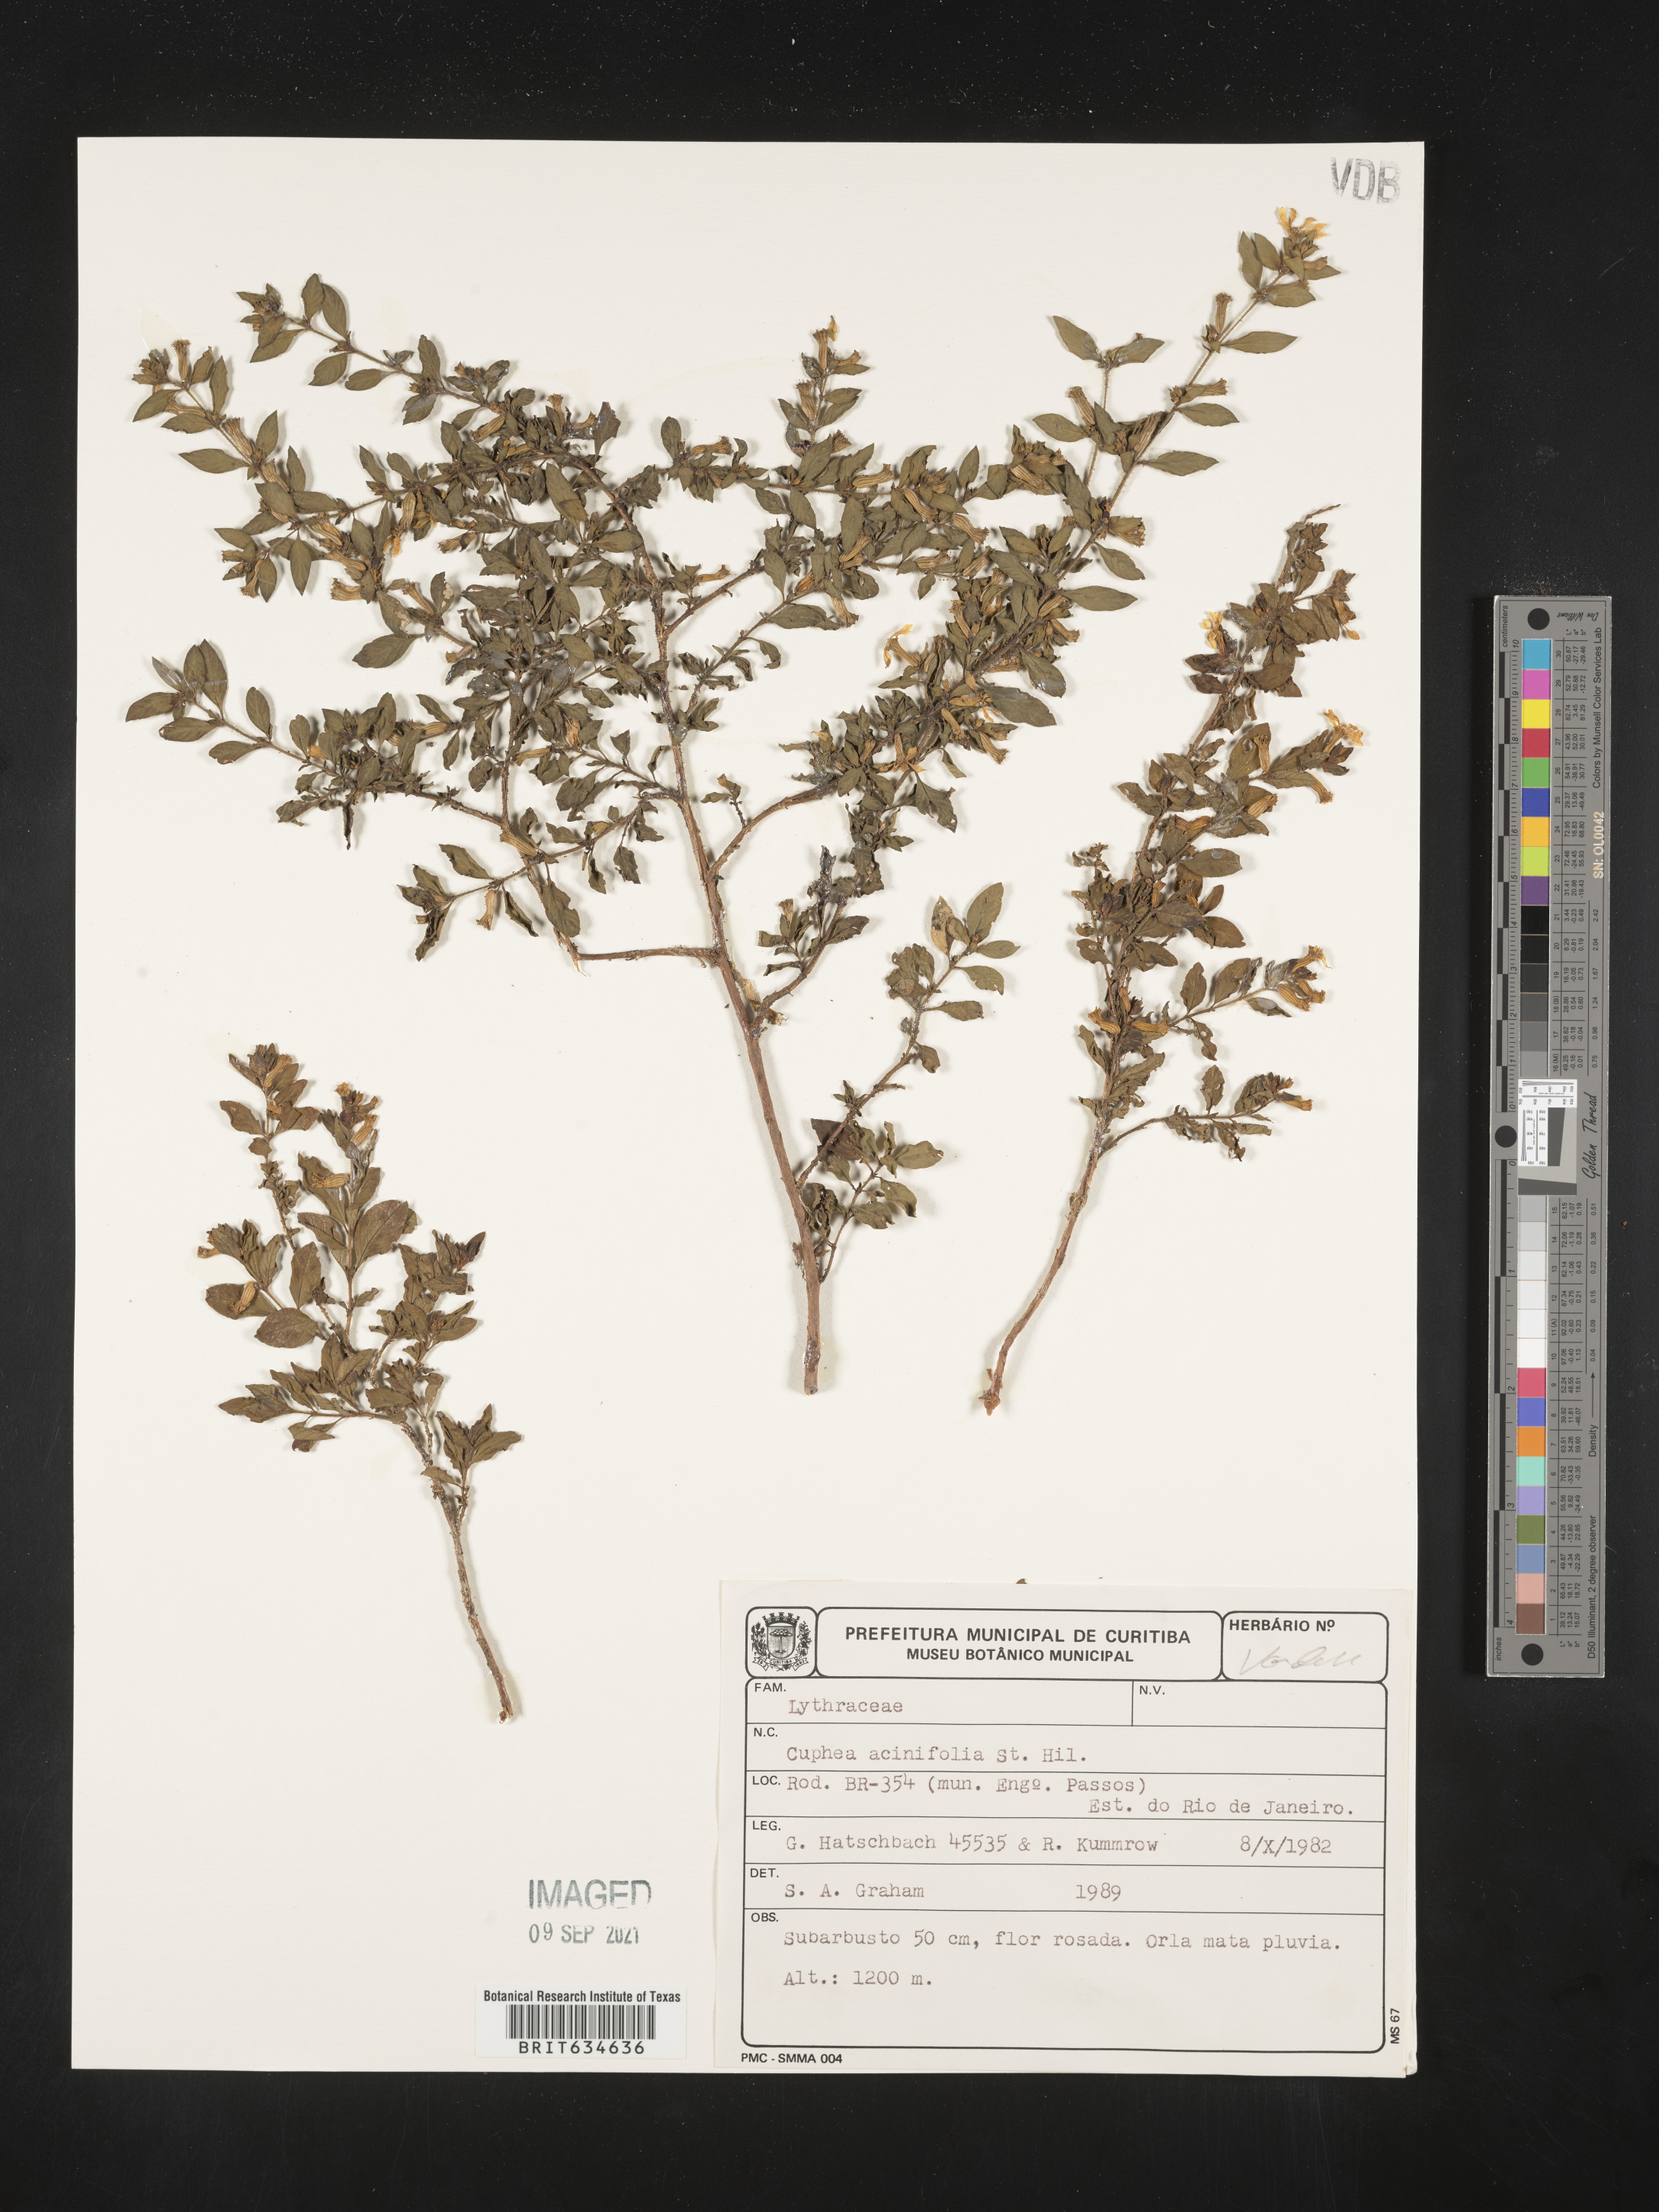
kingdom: Plantae
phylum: Tracheophyta
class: Magnoliopsida
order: Myrtales
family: Lythraceae
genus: Cuphea
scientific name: Cuphea
